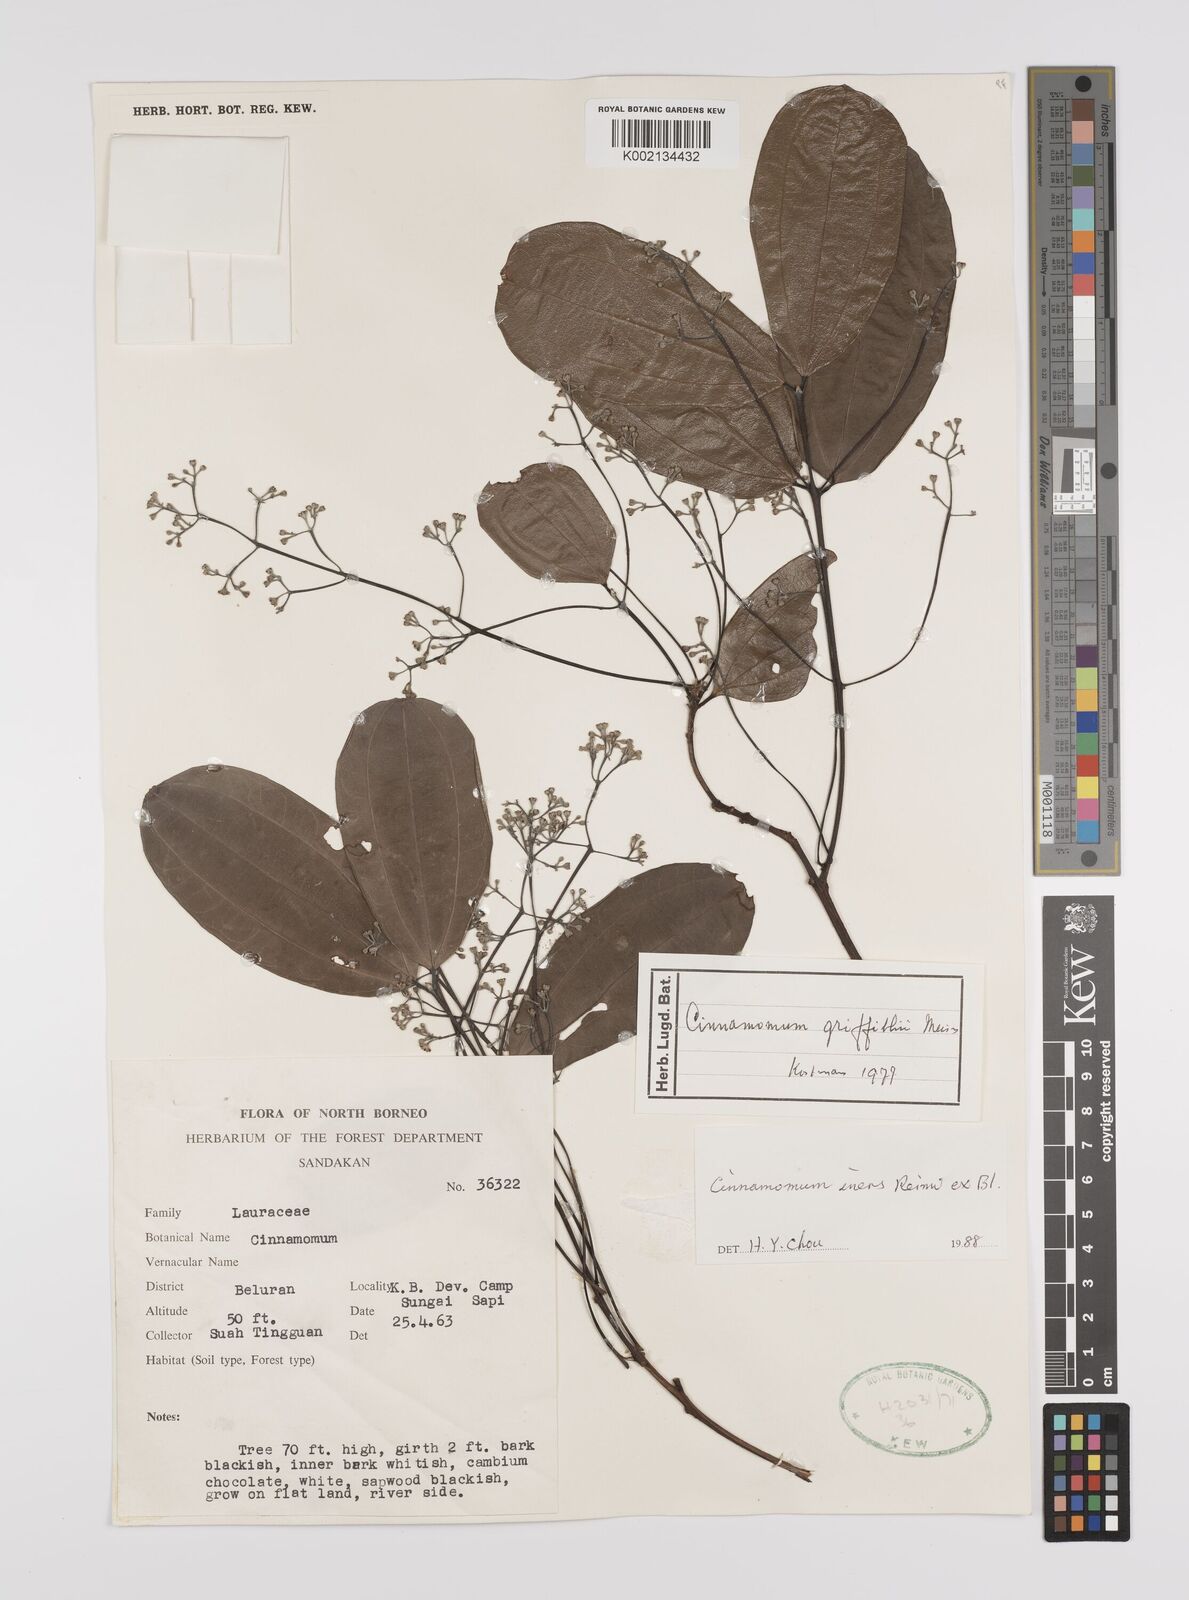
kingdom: Plantae
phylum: Tracheophyta
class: Magnoliopsida
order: Laurales
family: Lauraceae
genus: Cinnamomum
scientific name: Cinnamomum iners
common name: Wild cinnamon
